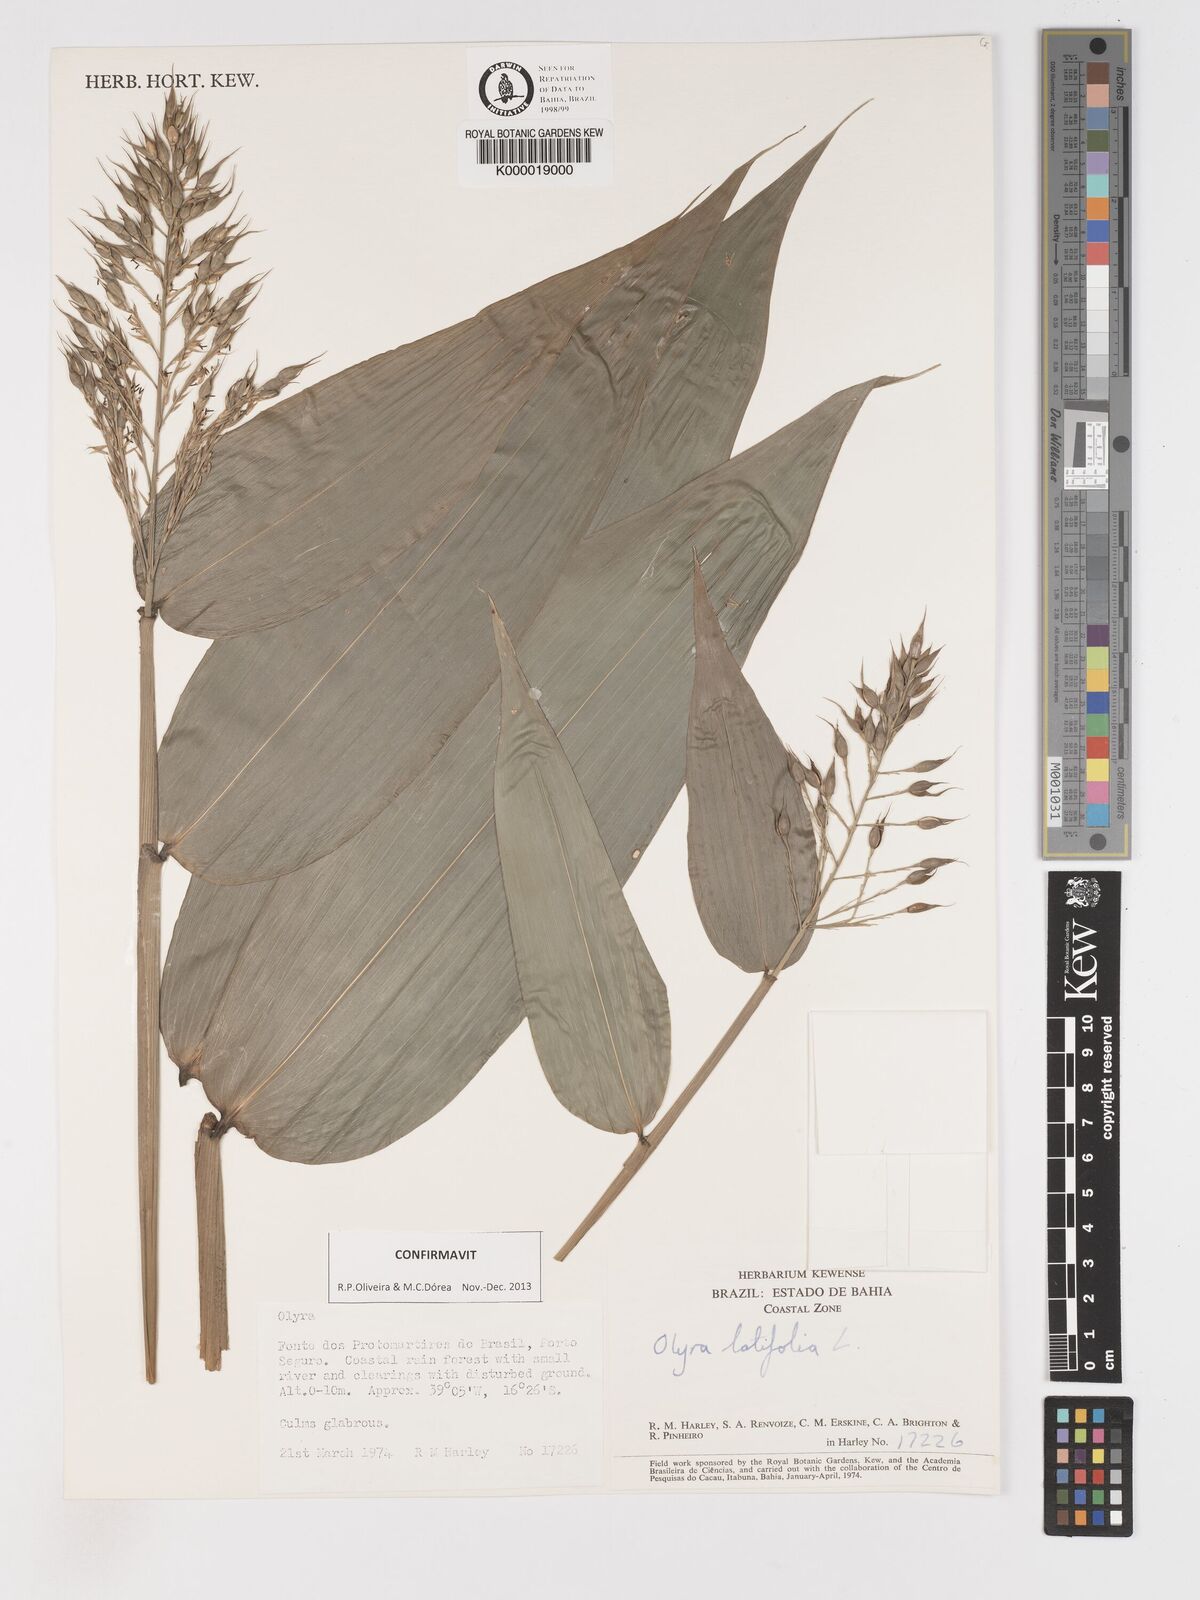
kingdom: Plantae
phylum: Tracheophyta
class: Liliopsida
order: Poales
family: Poaceae
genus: Olyra
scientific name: Olyra latifolia
